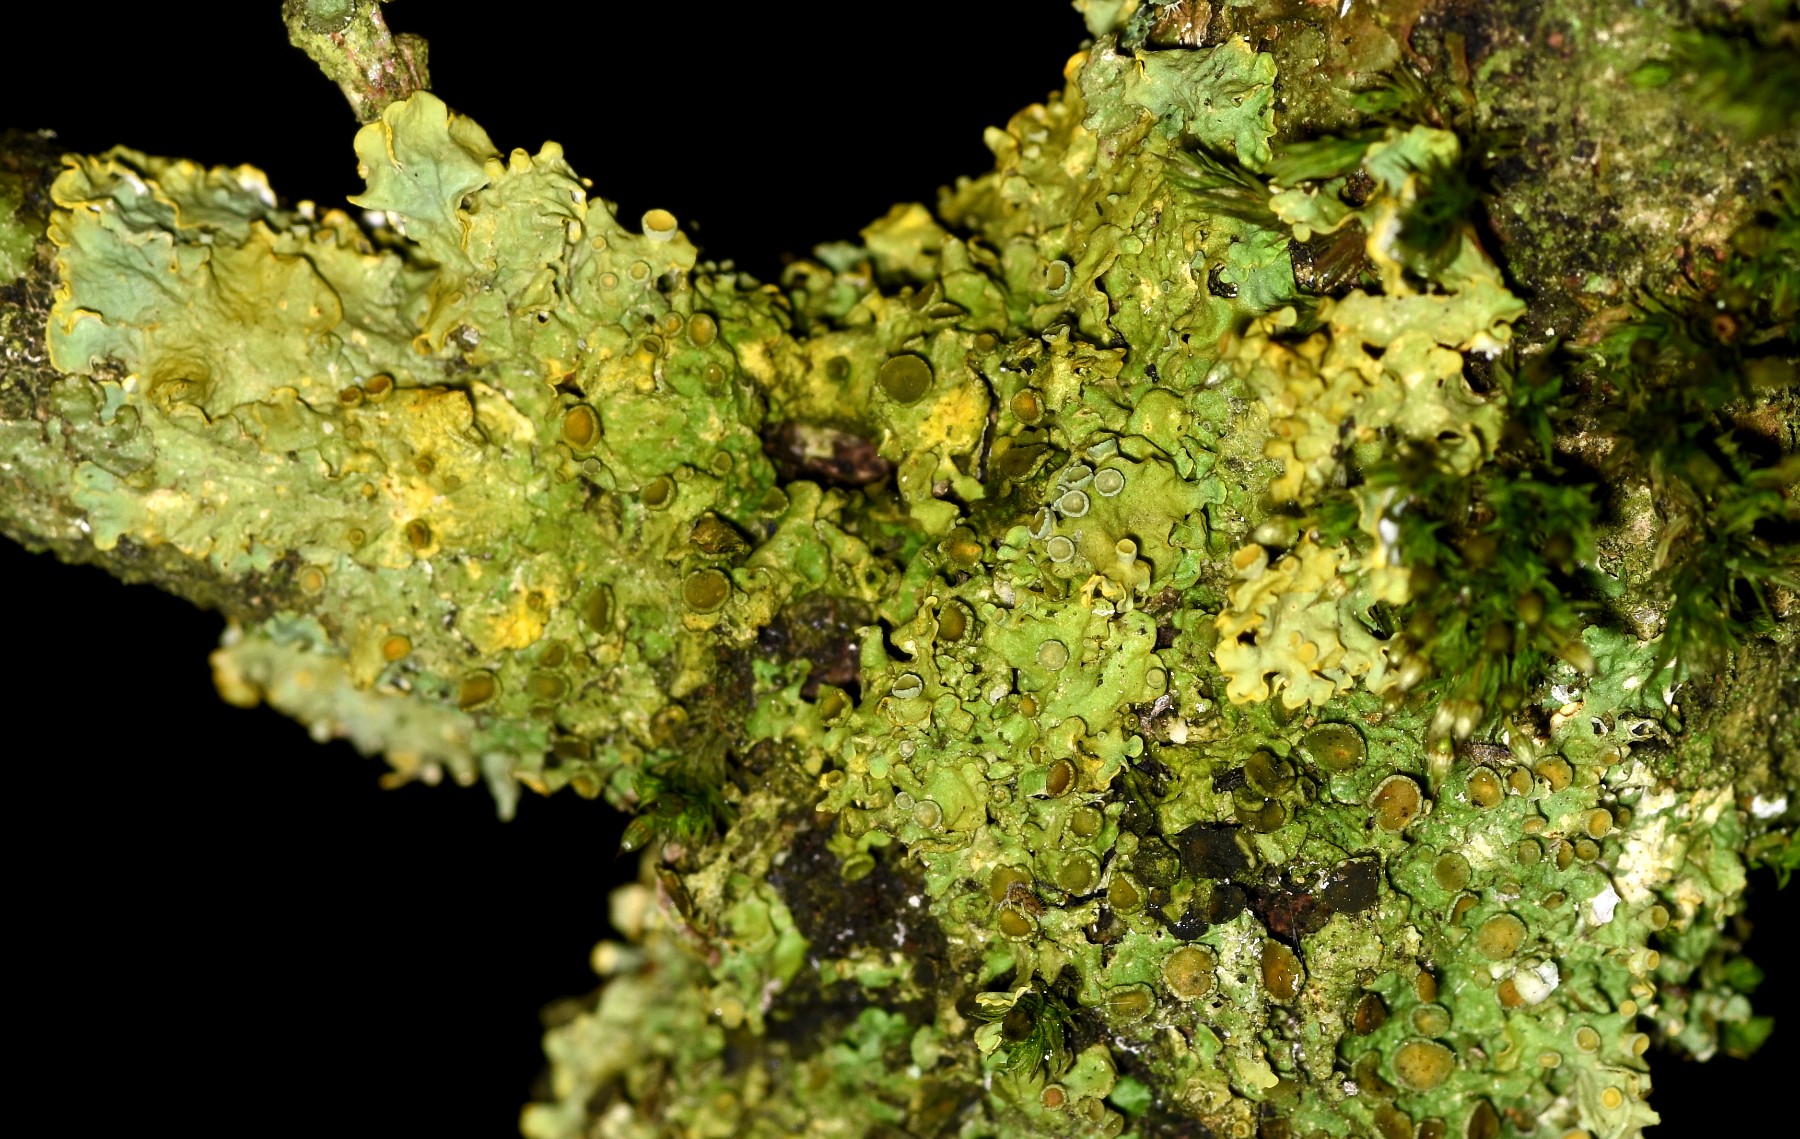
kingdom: Fungi
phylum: Ascomycota
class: Lecanoromycetes
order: Teloschistales
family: Teloschistaceae
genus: Xanthoria
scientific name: Xanthoria parietina
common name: almindelig væggelav
